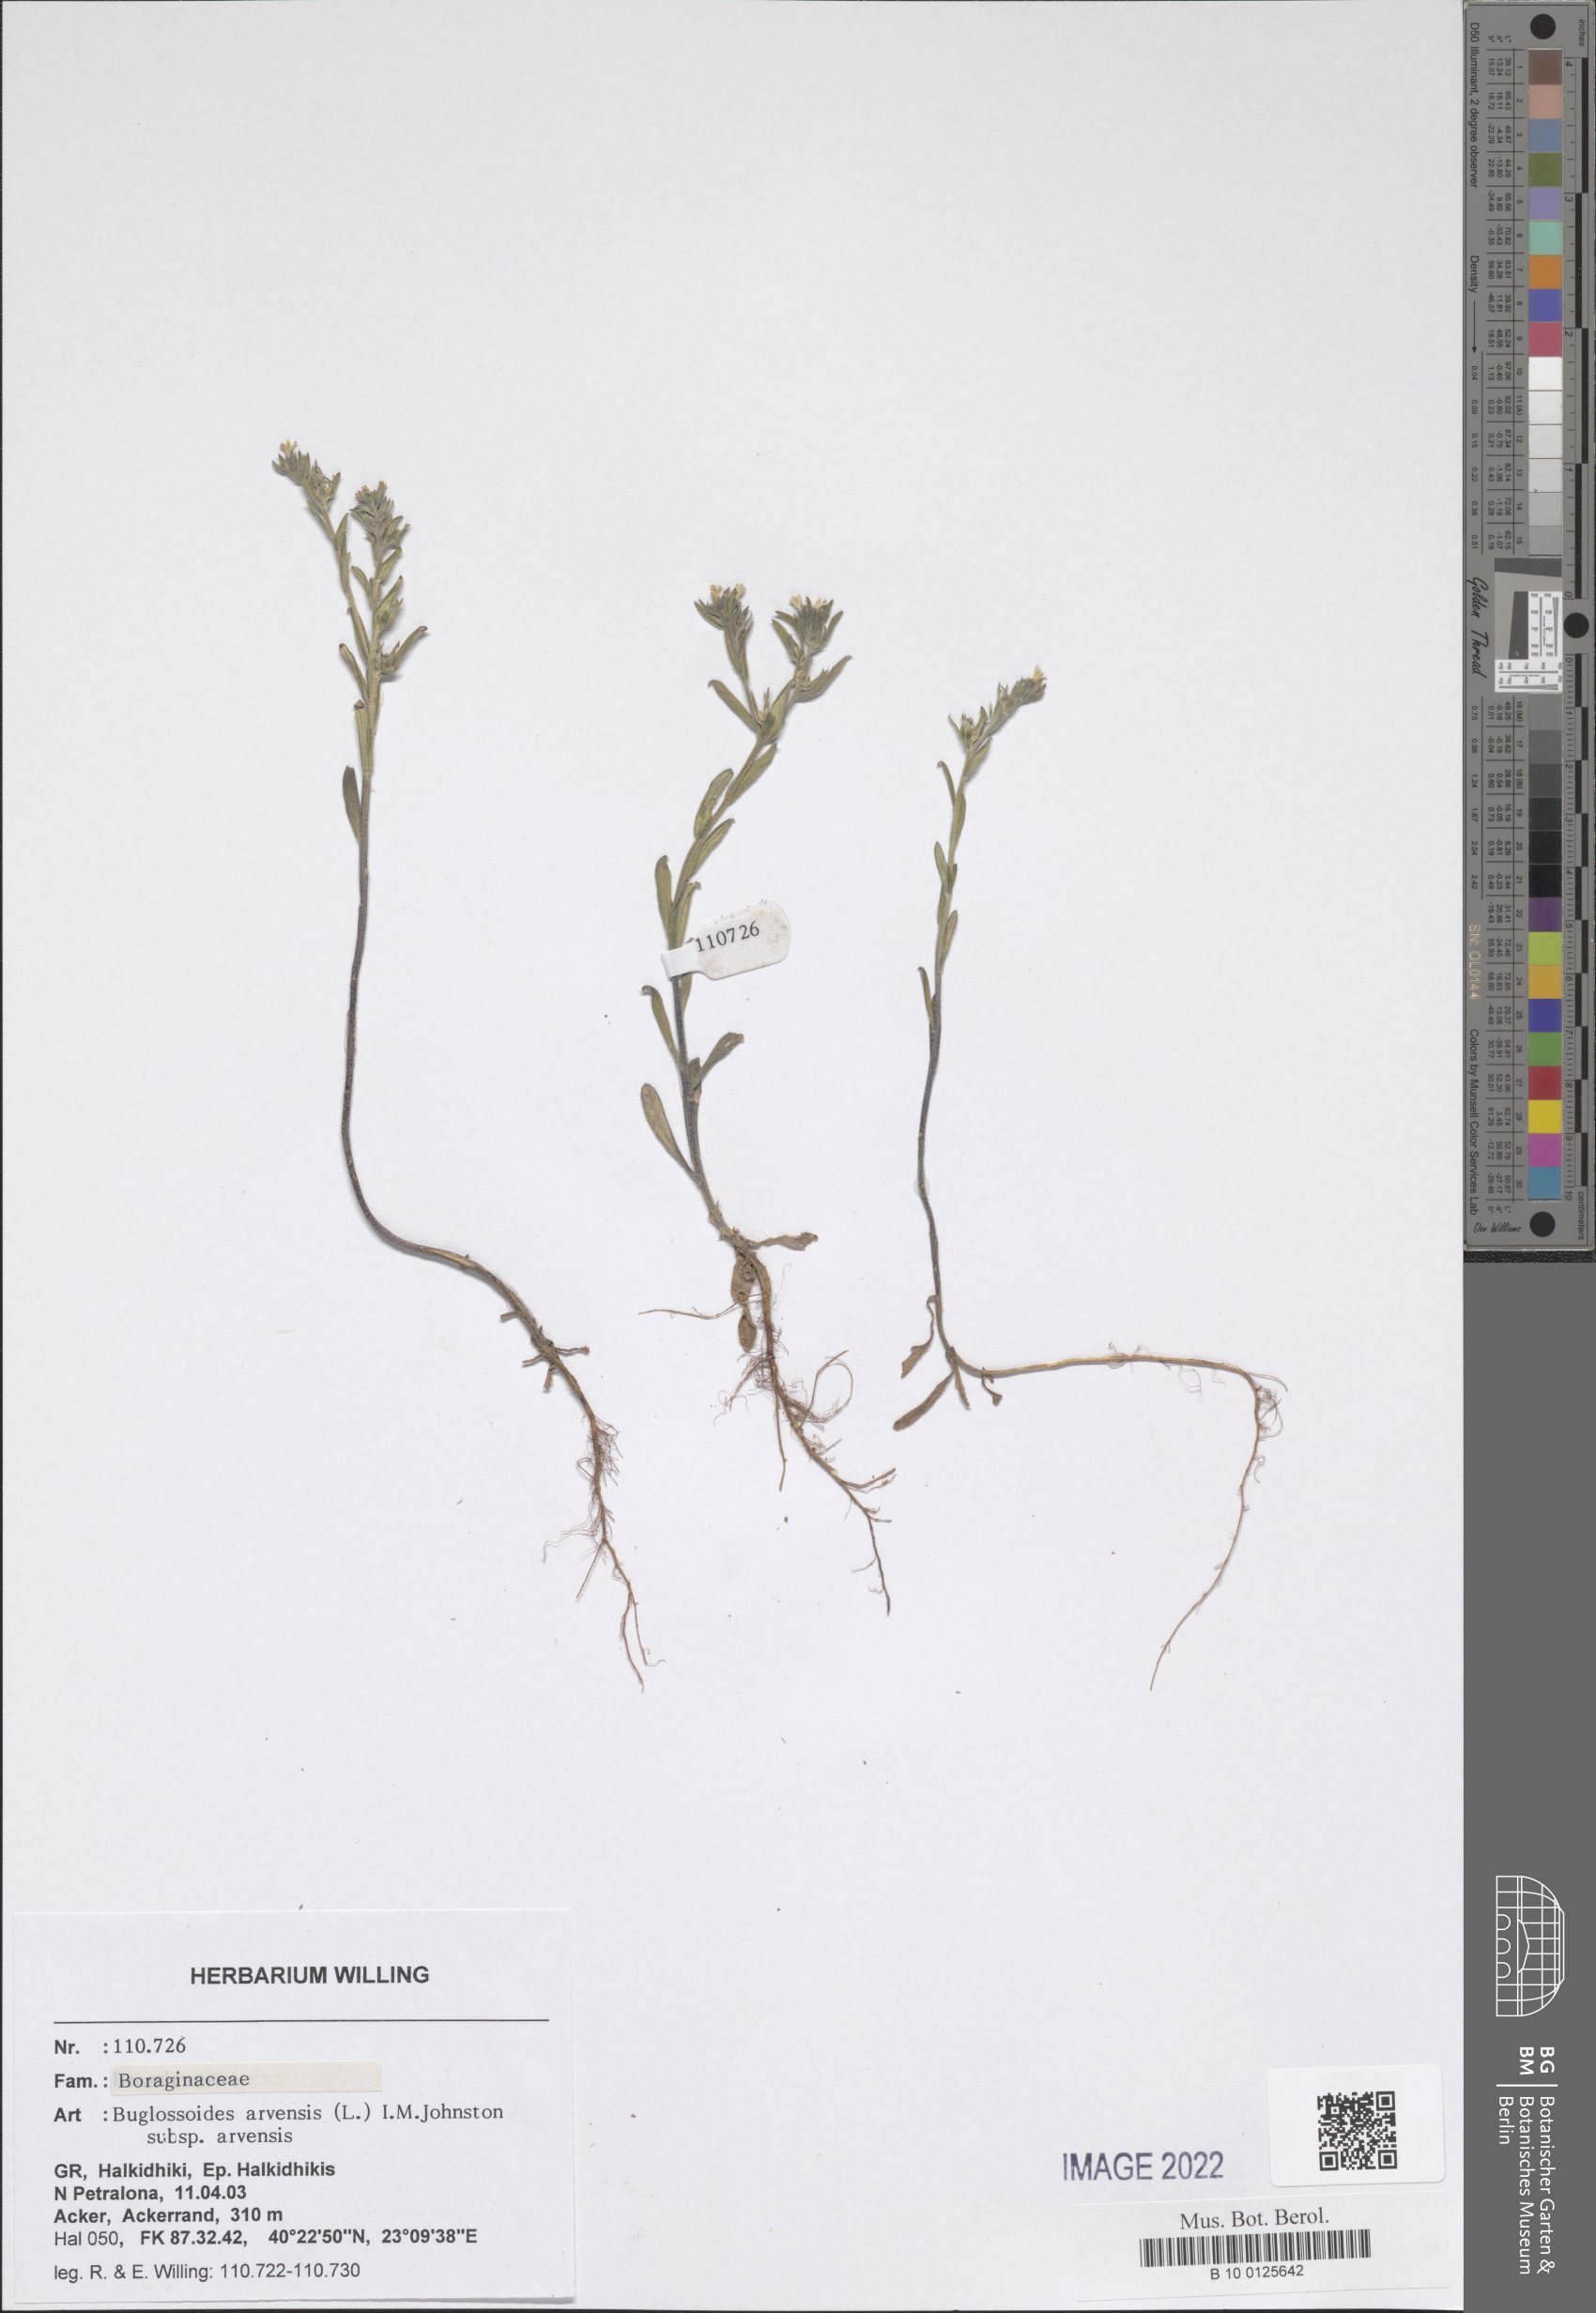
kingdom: Plantae
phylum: Tracheophyta
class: Magnoliopsida
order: Boraginales
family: Boraginaceae
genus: Buglossoides
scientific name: Buglossoides arvensis
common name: Corn gromwell
